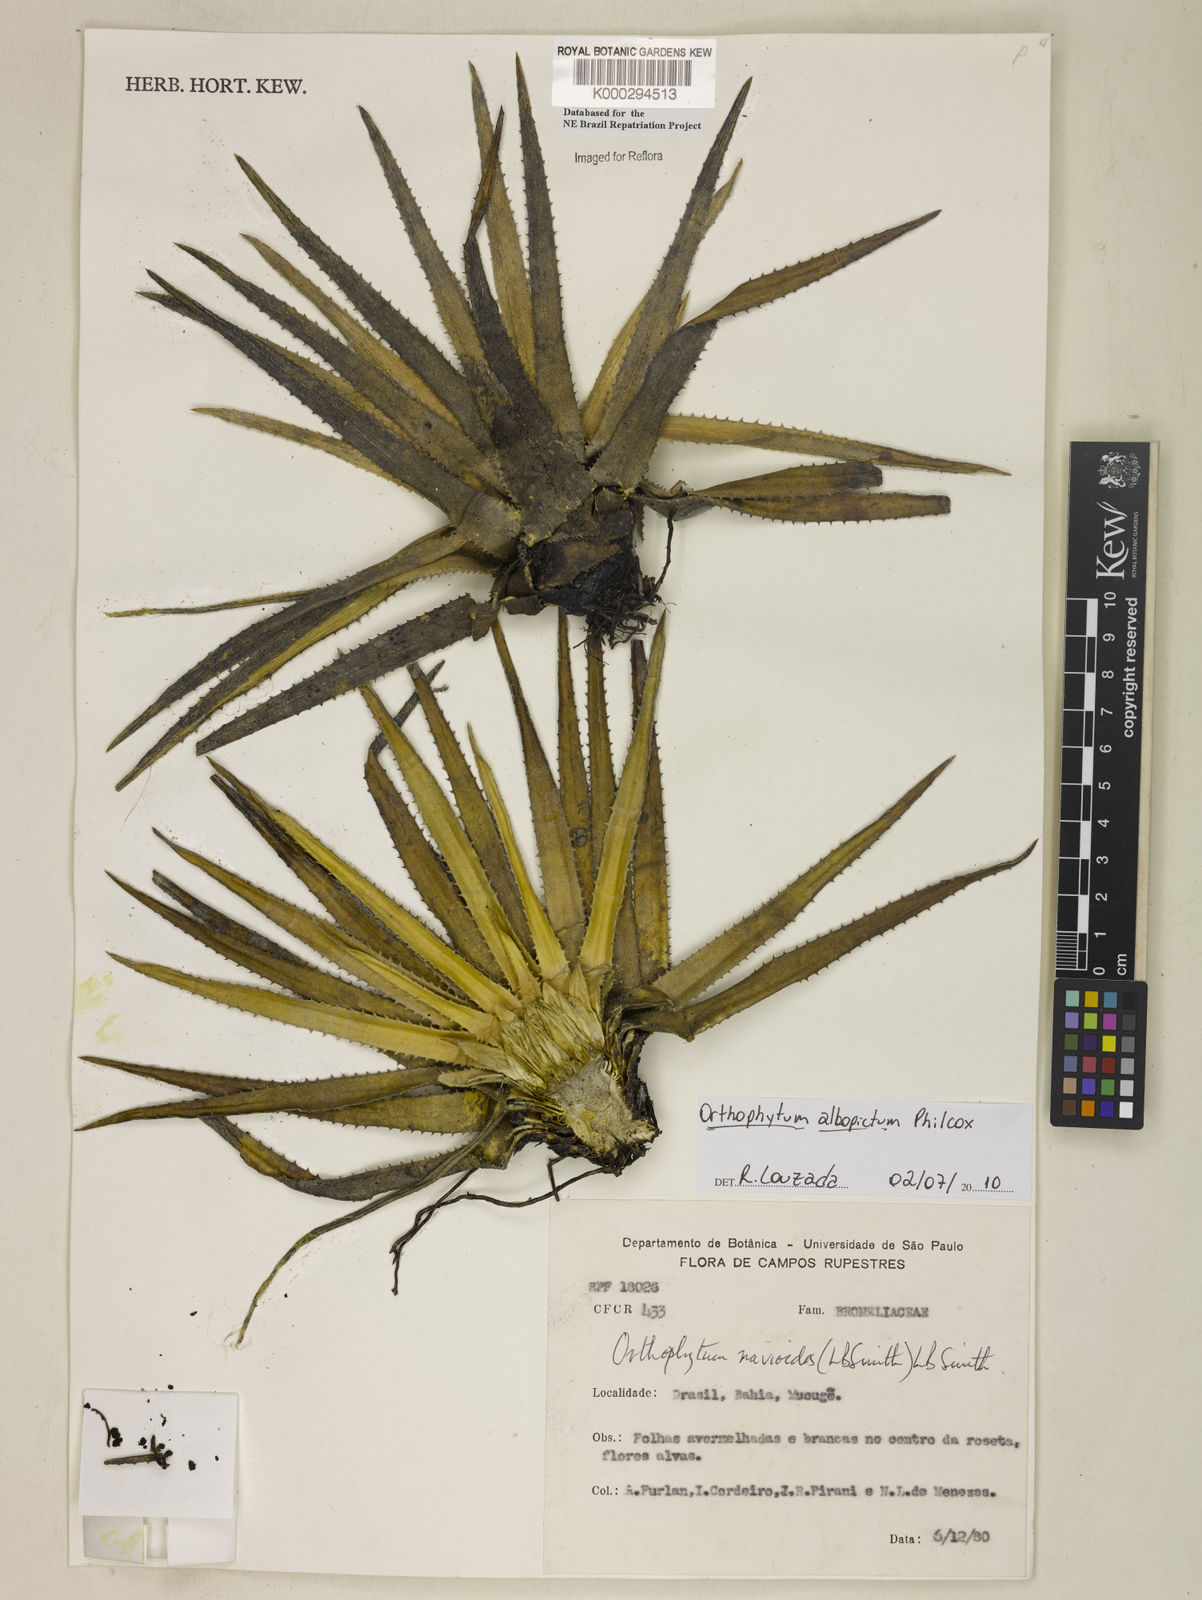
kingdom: Plantae
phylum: Tracheophyta
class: Liliopsida
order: Poales
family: Bromeliaceae
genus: Sincoraea
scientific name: Sincoraea navioides
